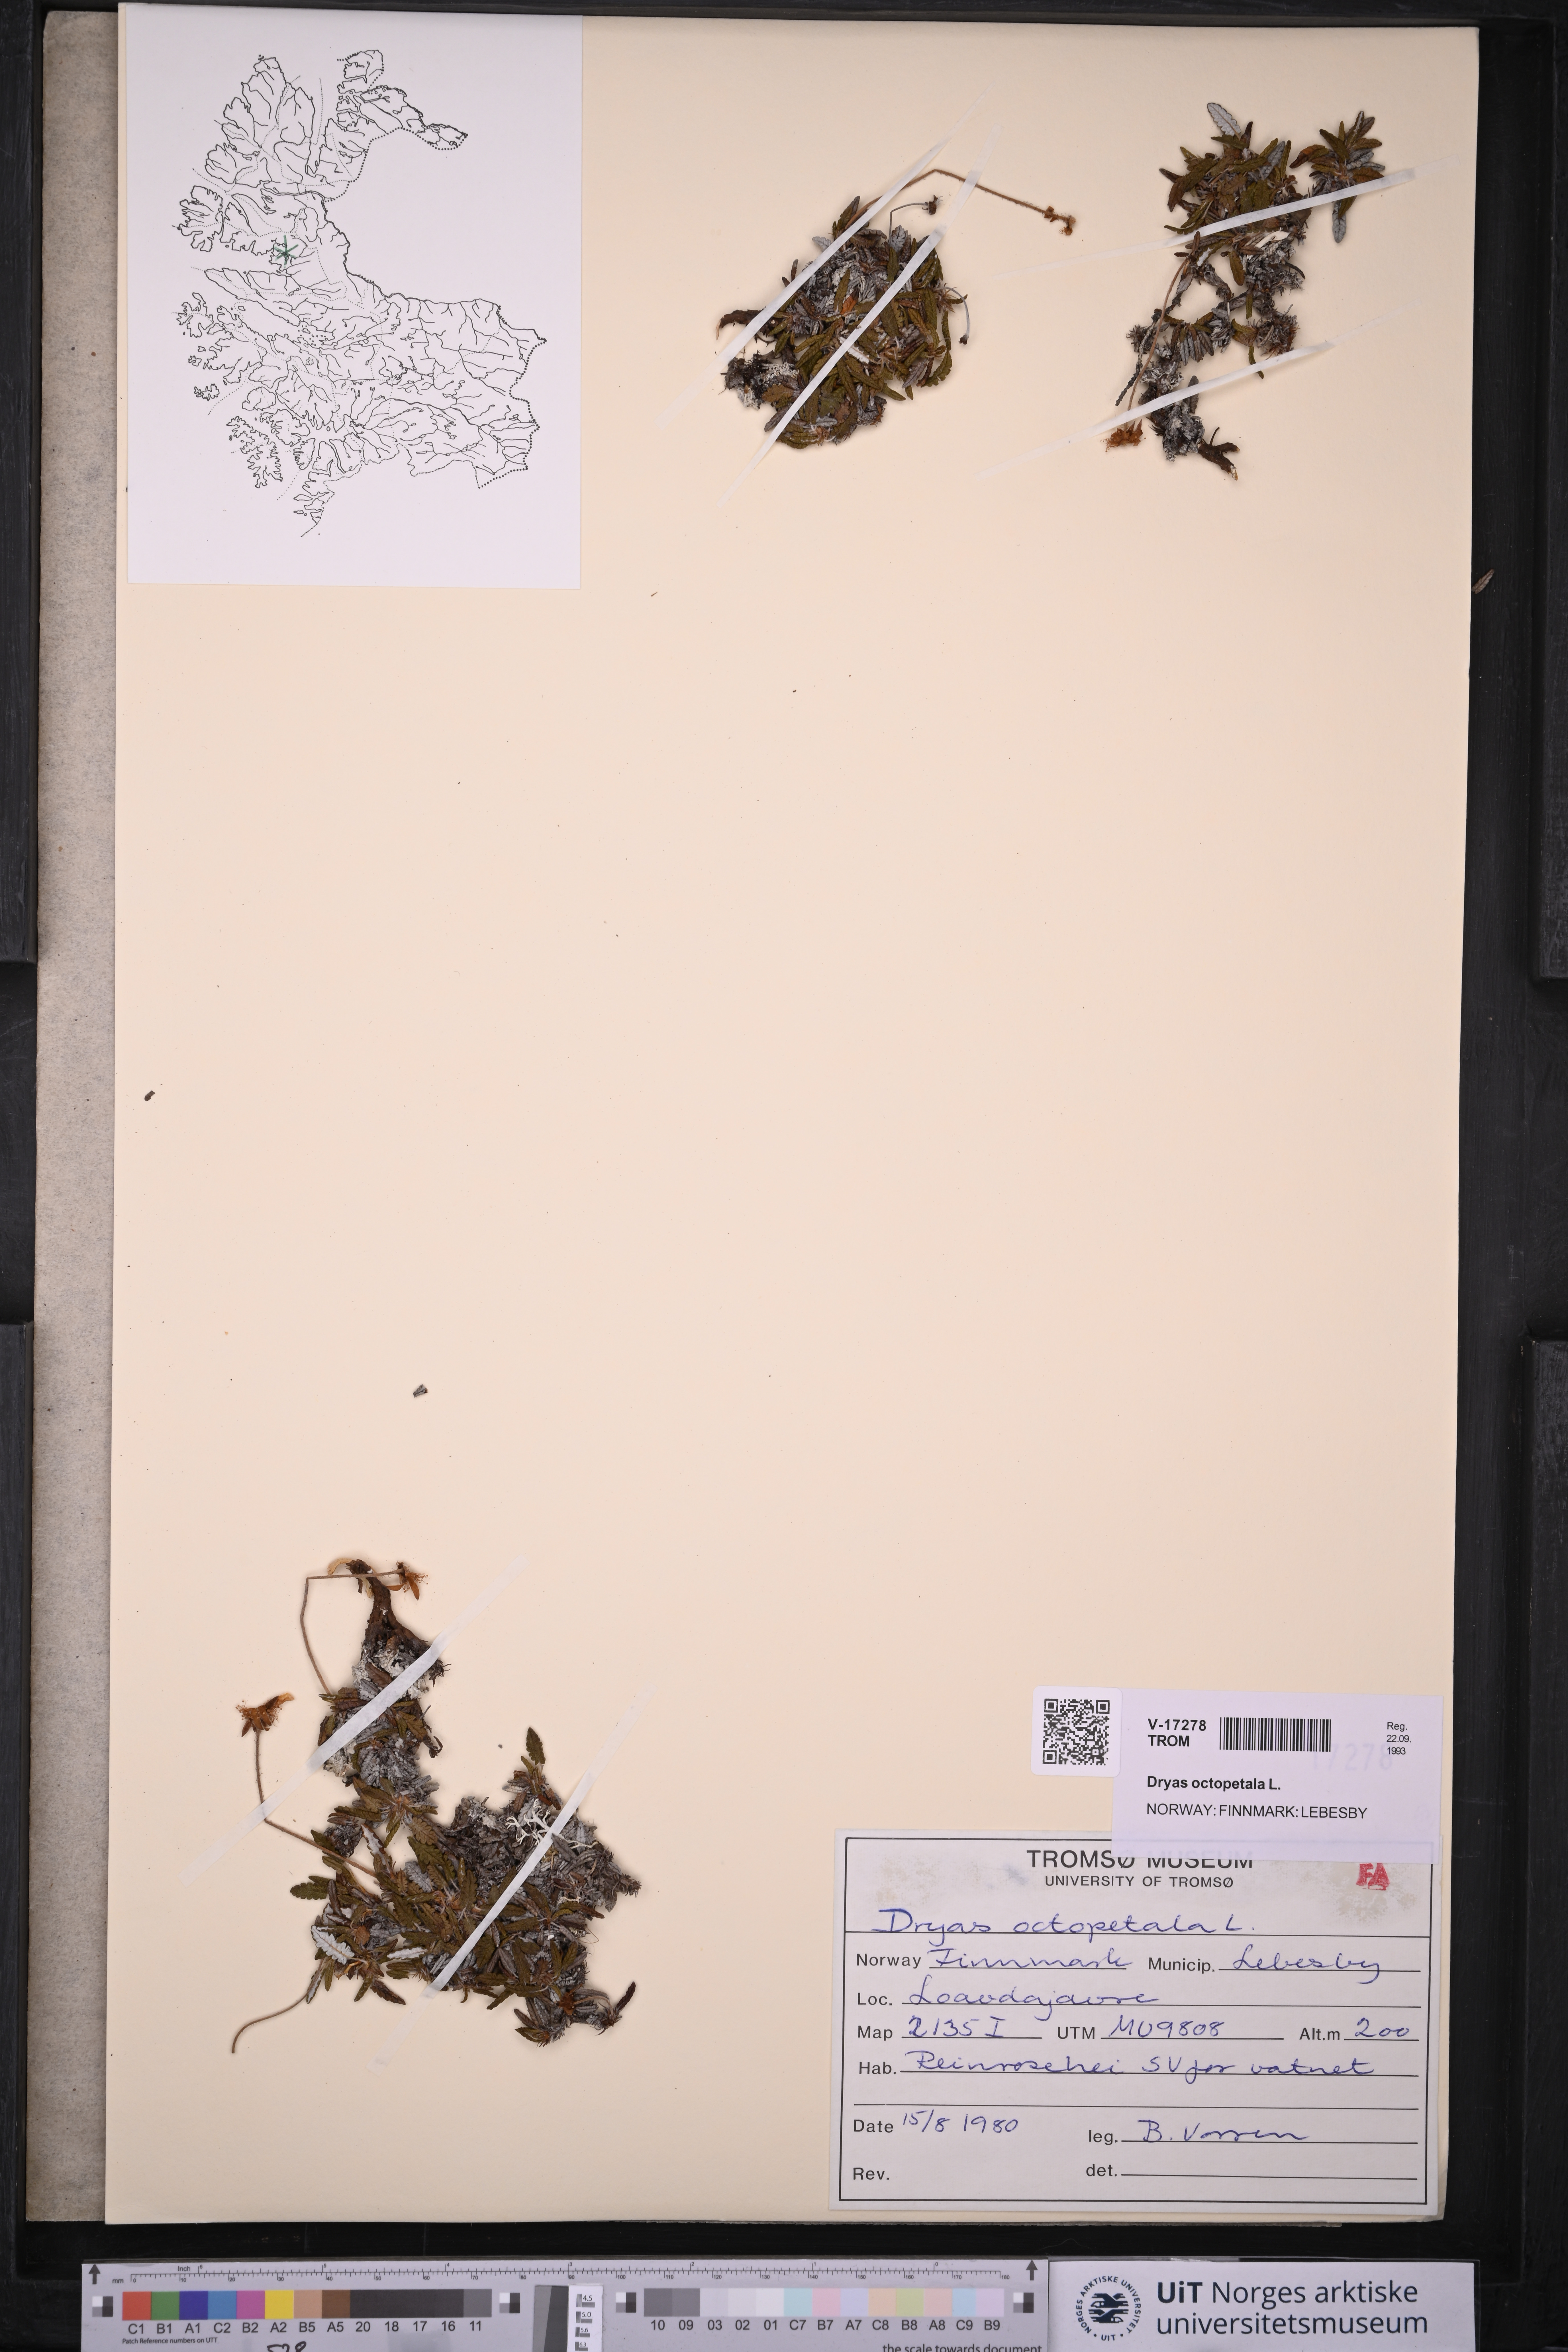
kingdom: Plantae
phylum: Tracheophyta
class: Magnoliopsida
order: Rosales
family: Rosaceae
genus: Dryas
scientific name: Dryas octopetala
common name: Eight-petal mountain-avens
